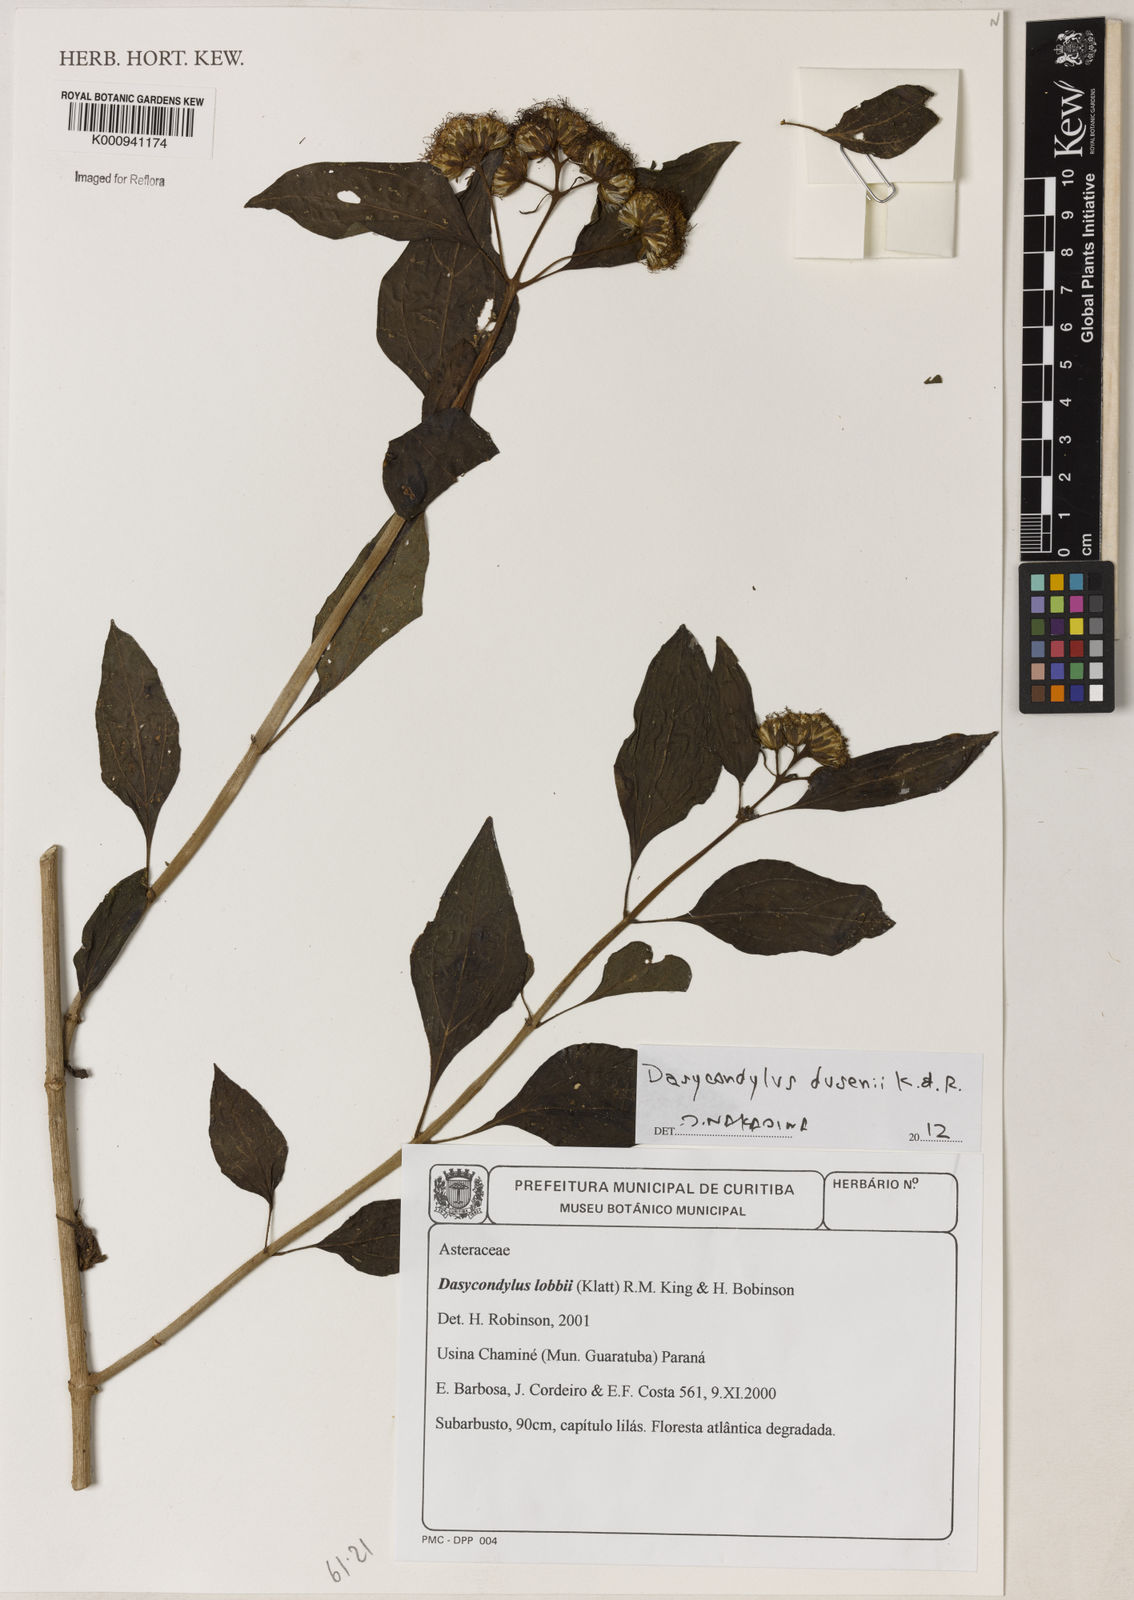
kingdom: Plantae
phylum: Tracheophyta
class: Magnoliopsida
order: Asterales
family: Asteraceae
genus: Dasycondylus
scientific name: Dasycondylus dusenii
